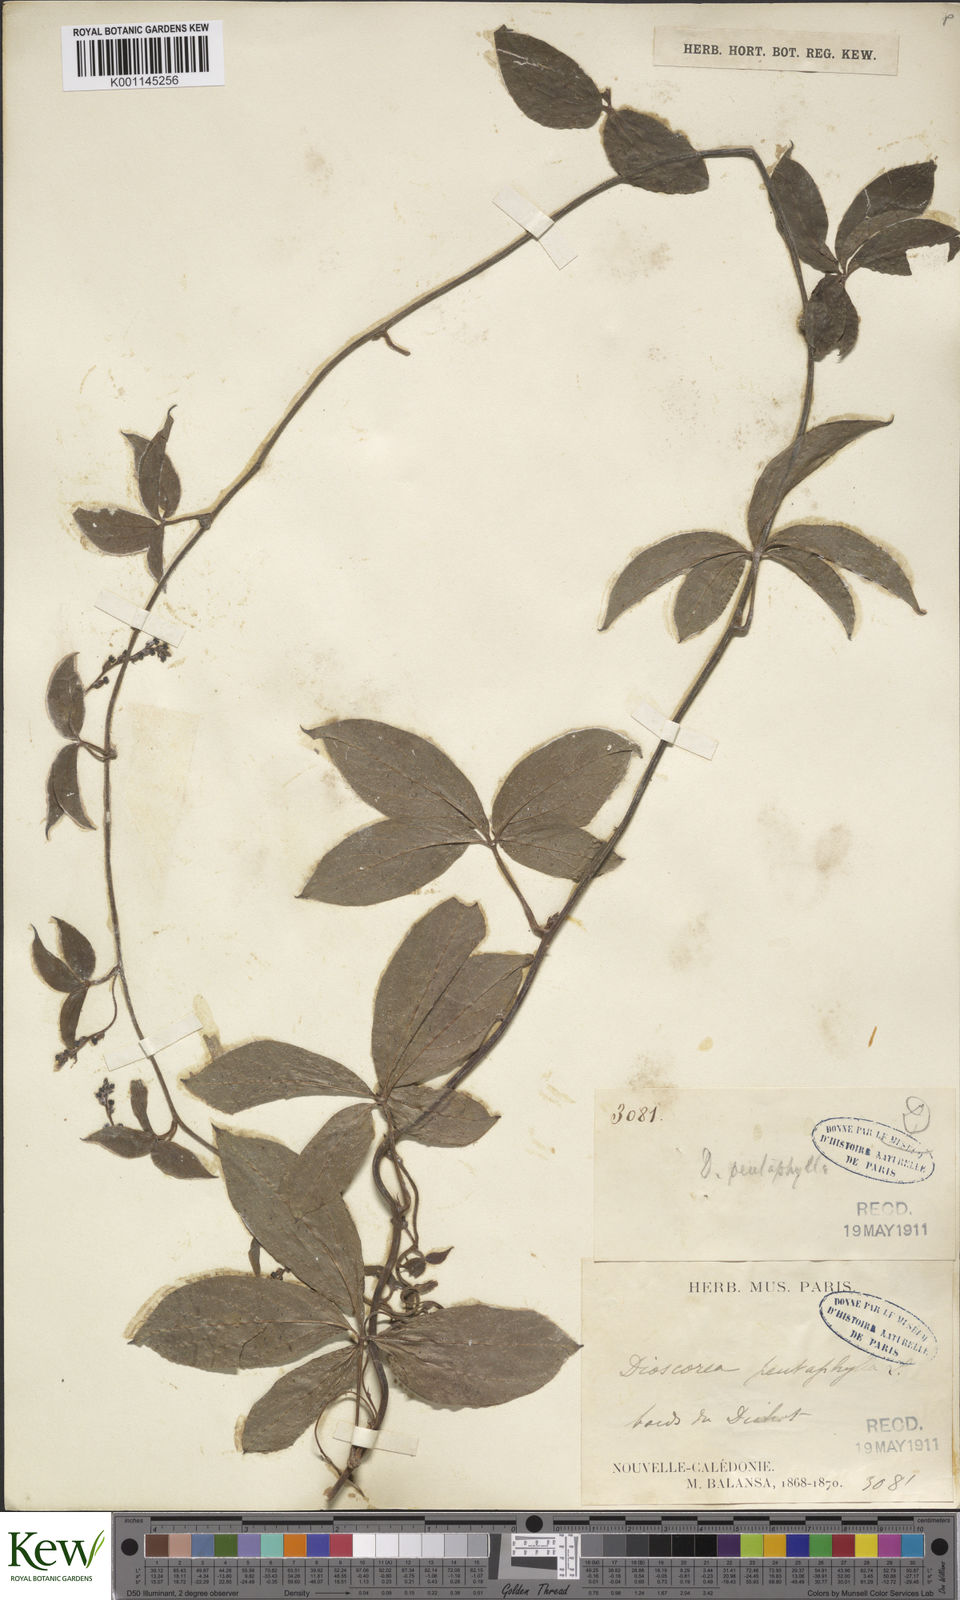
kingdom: Plantae
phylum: Tracheophyta
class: Liliopsida
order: Dioscoreales
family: Dioscoreaceae
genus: Dioscorea
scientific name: Dioscorea pentaphylla
